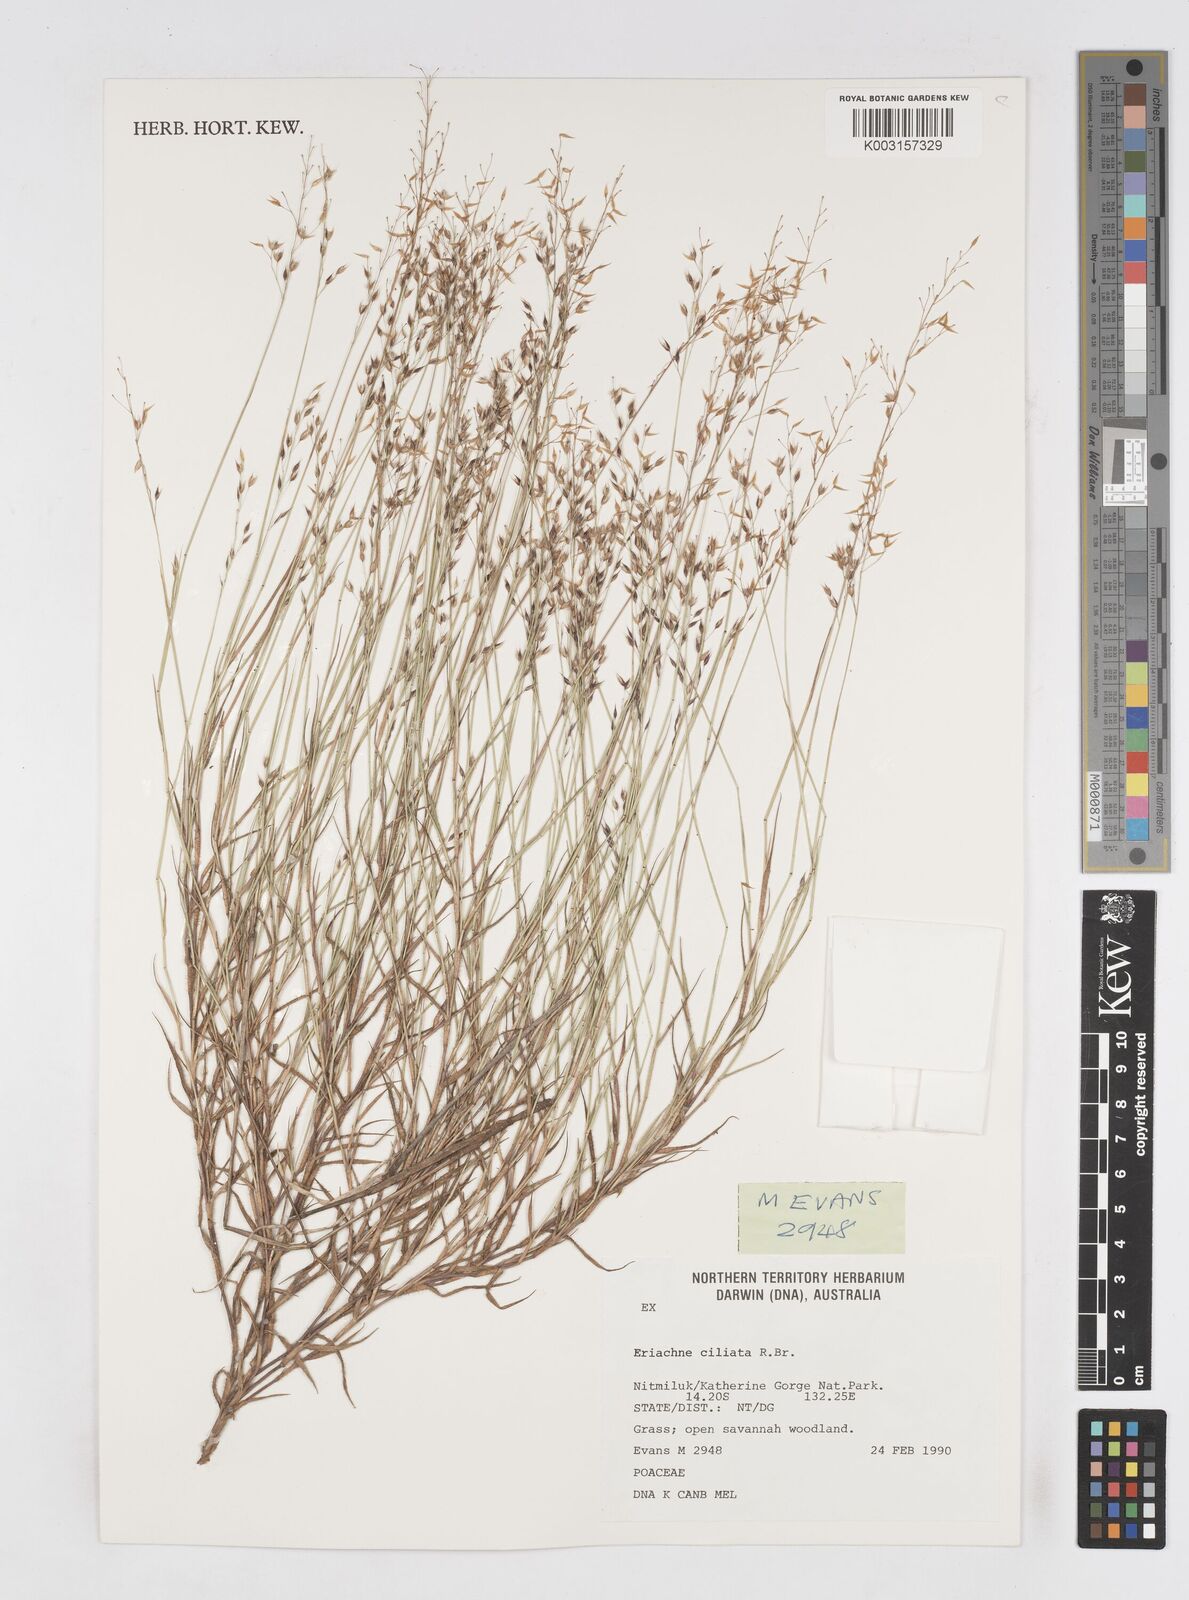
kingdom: Plantae
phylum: Tracheophyta
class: Liliopsida
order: Poales
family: Poaceae
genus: Eriachne
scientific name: Eriachne ciliata
